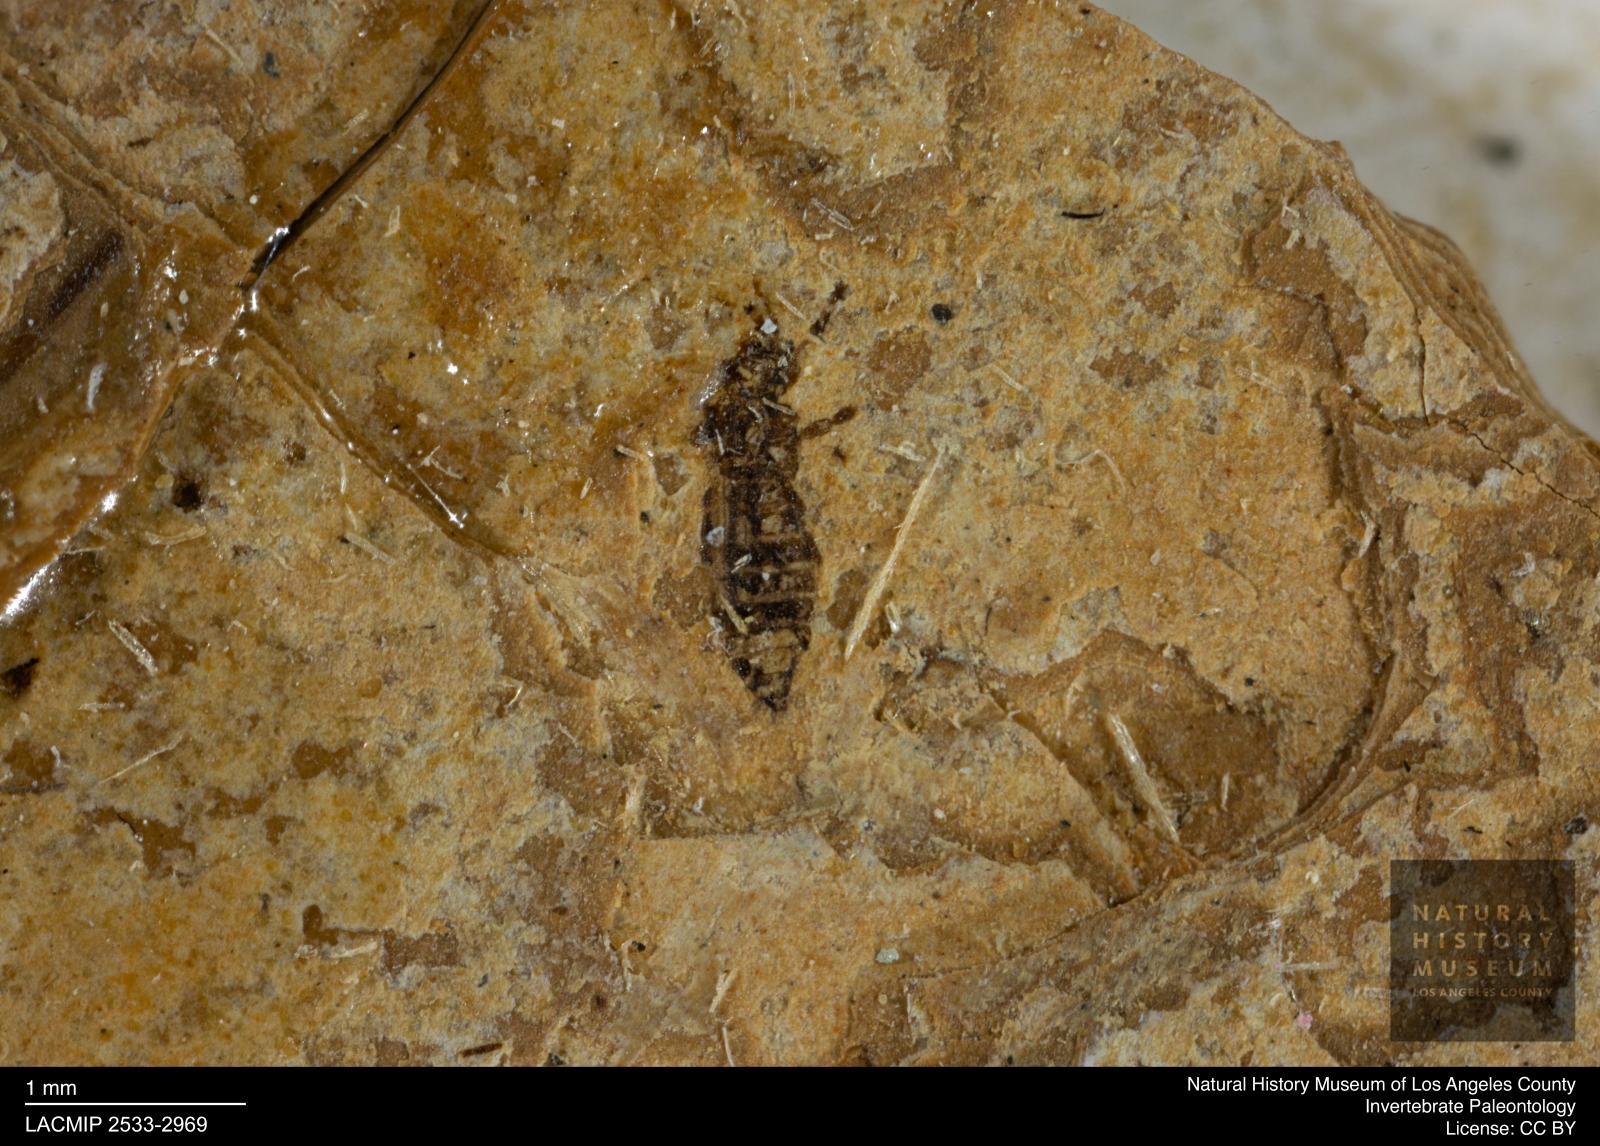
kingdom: Animalia
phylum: Arthropoda
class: Insecta
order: Thysanoptera
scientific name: Thysanoptera
